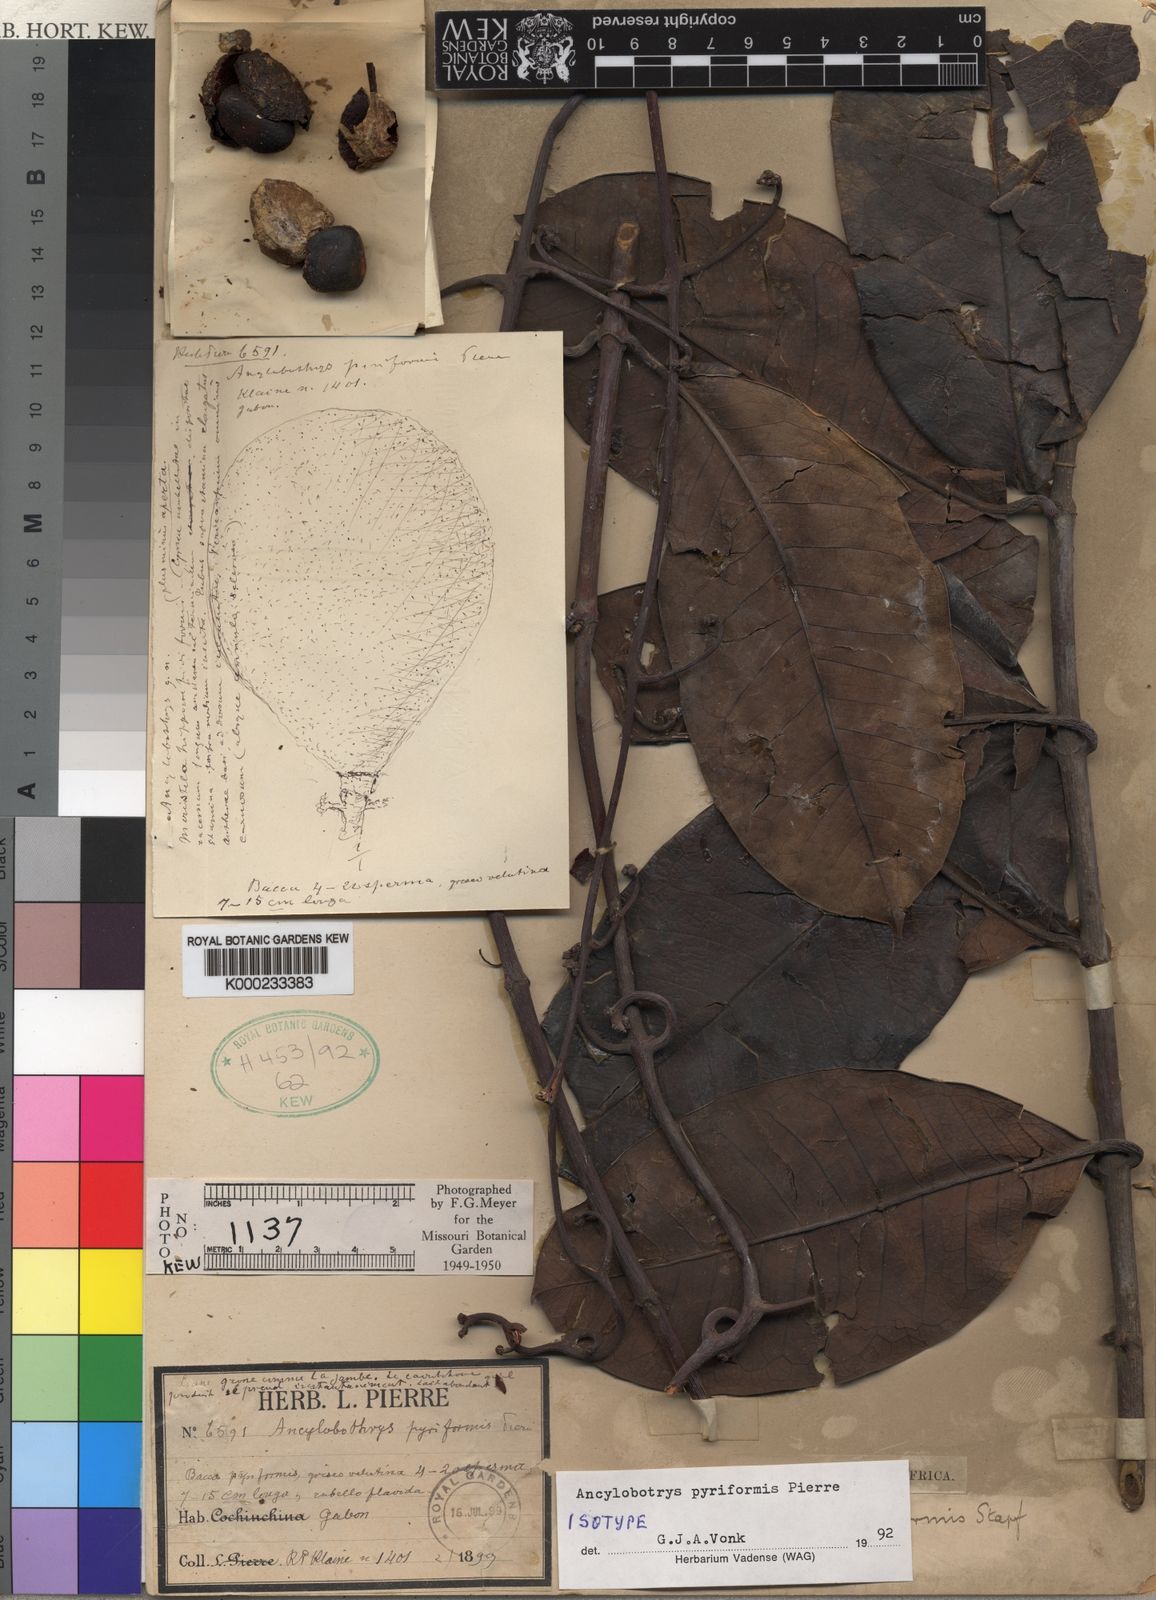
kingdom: Plantae
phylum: Tracheophyta
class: Magnoliopsida
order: Gentianales
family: Apocynaceae
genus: Ancylobothrys
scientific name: Ancylobothrys pyriformis
